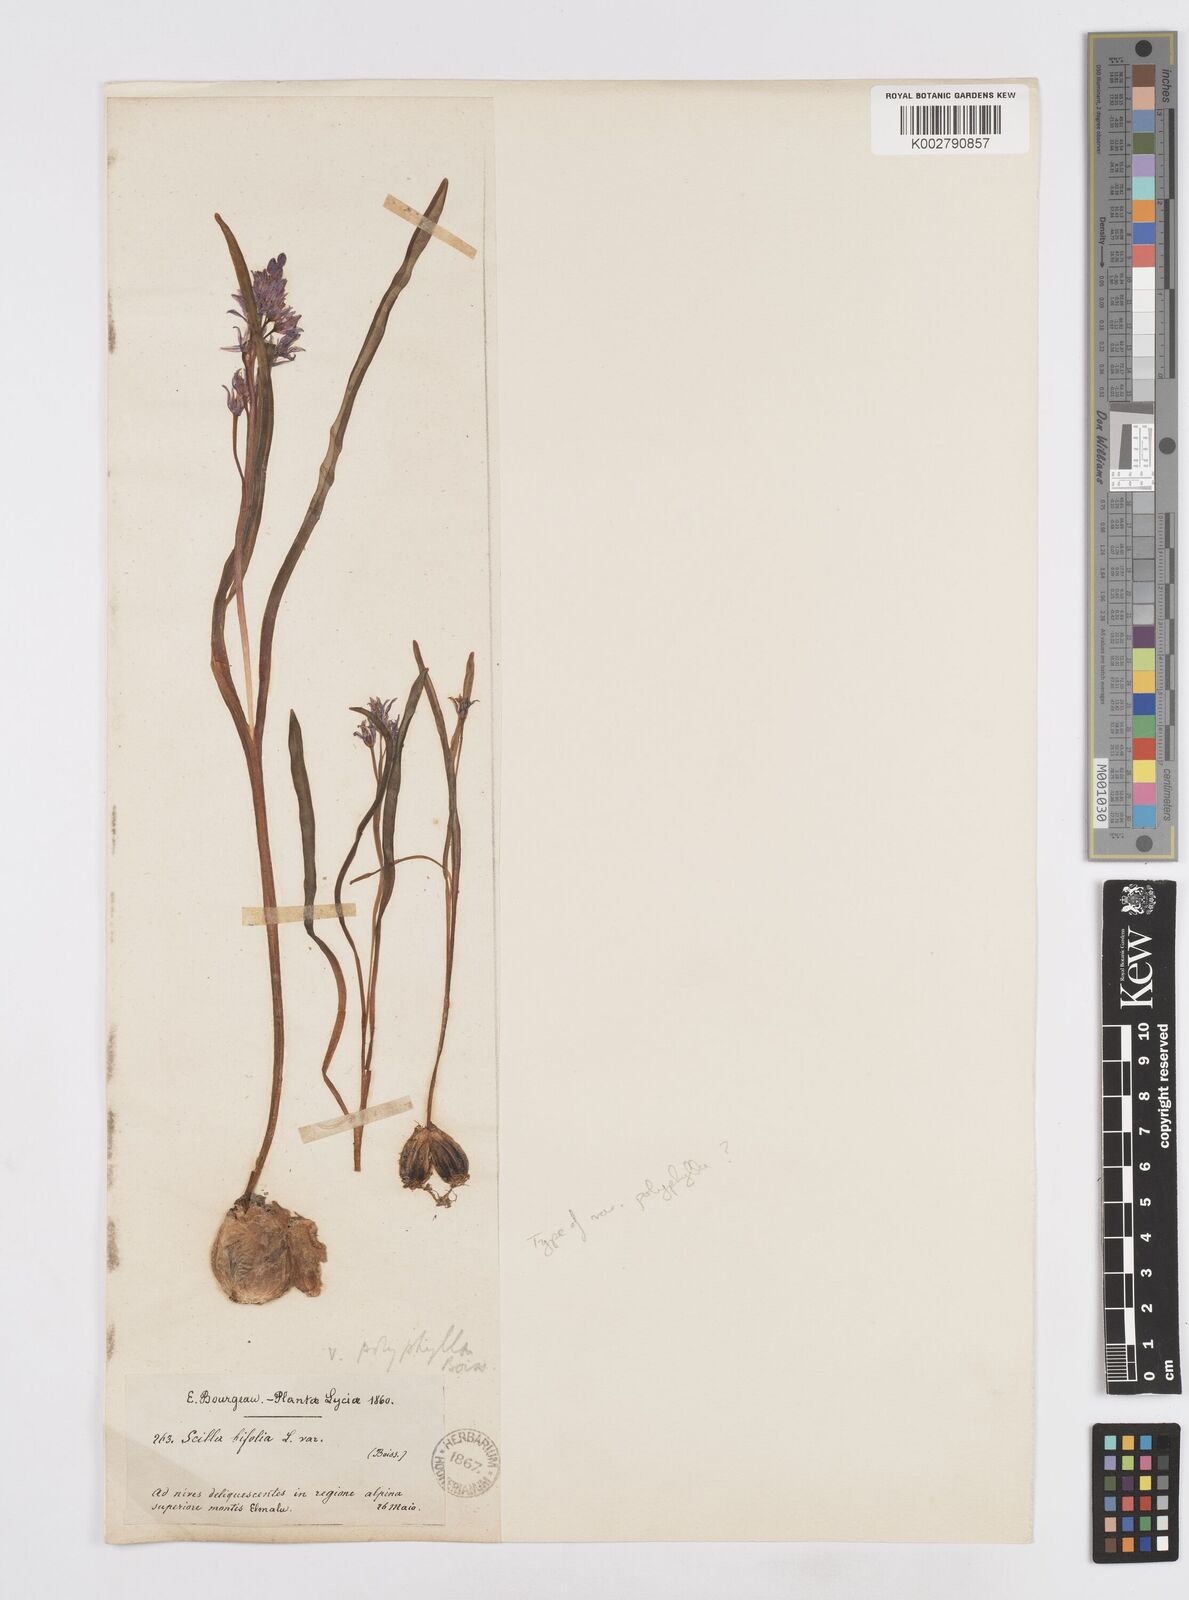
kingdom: Plantae
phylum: Tracheophyta
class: Liliopsida
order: Asparagales
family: Asparagaceae
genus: Scilla
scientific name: Scilla bifolia
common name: Alpine squill
